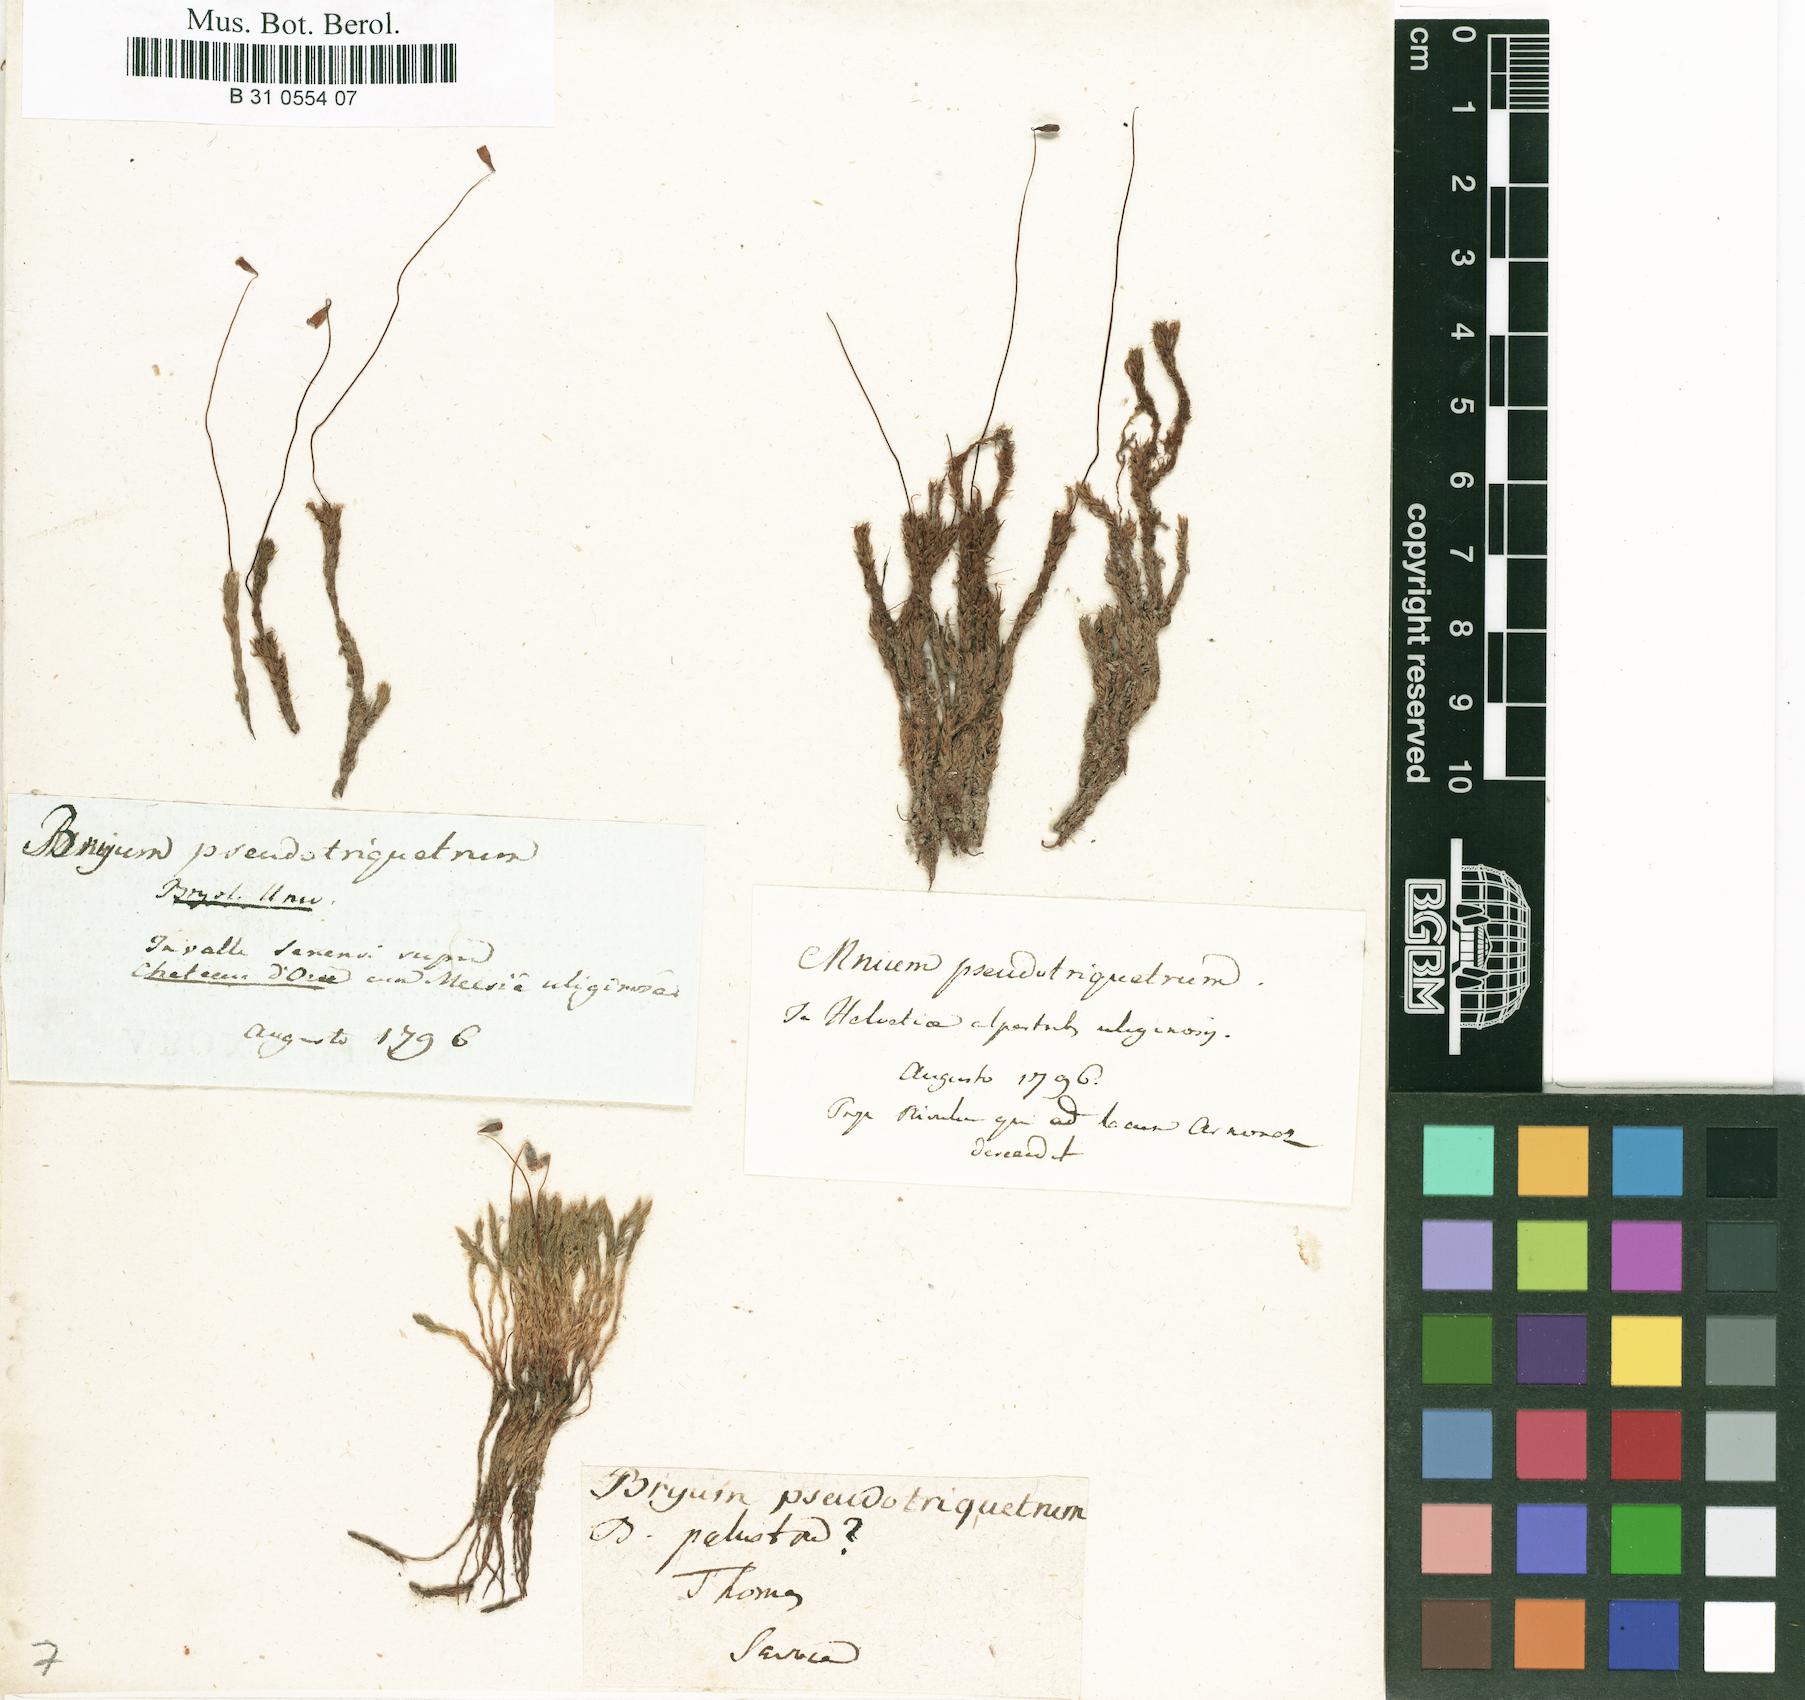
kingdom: Plantae
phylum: Bryophyta
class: Bryopsida
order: Bryales
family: Bryaceae
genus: Ptychostomum
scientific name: Ptychostomum pseudotriquetrum
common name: Long-leaved thread moss
